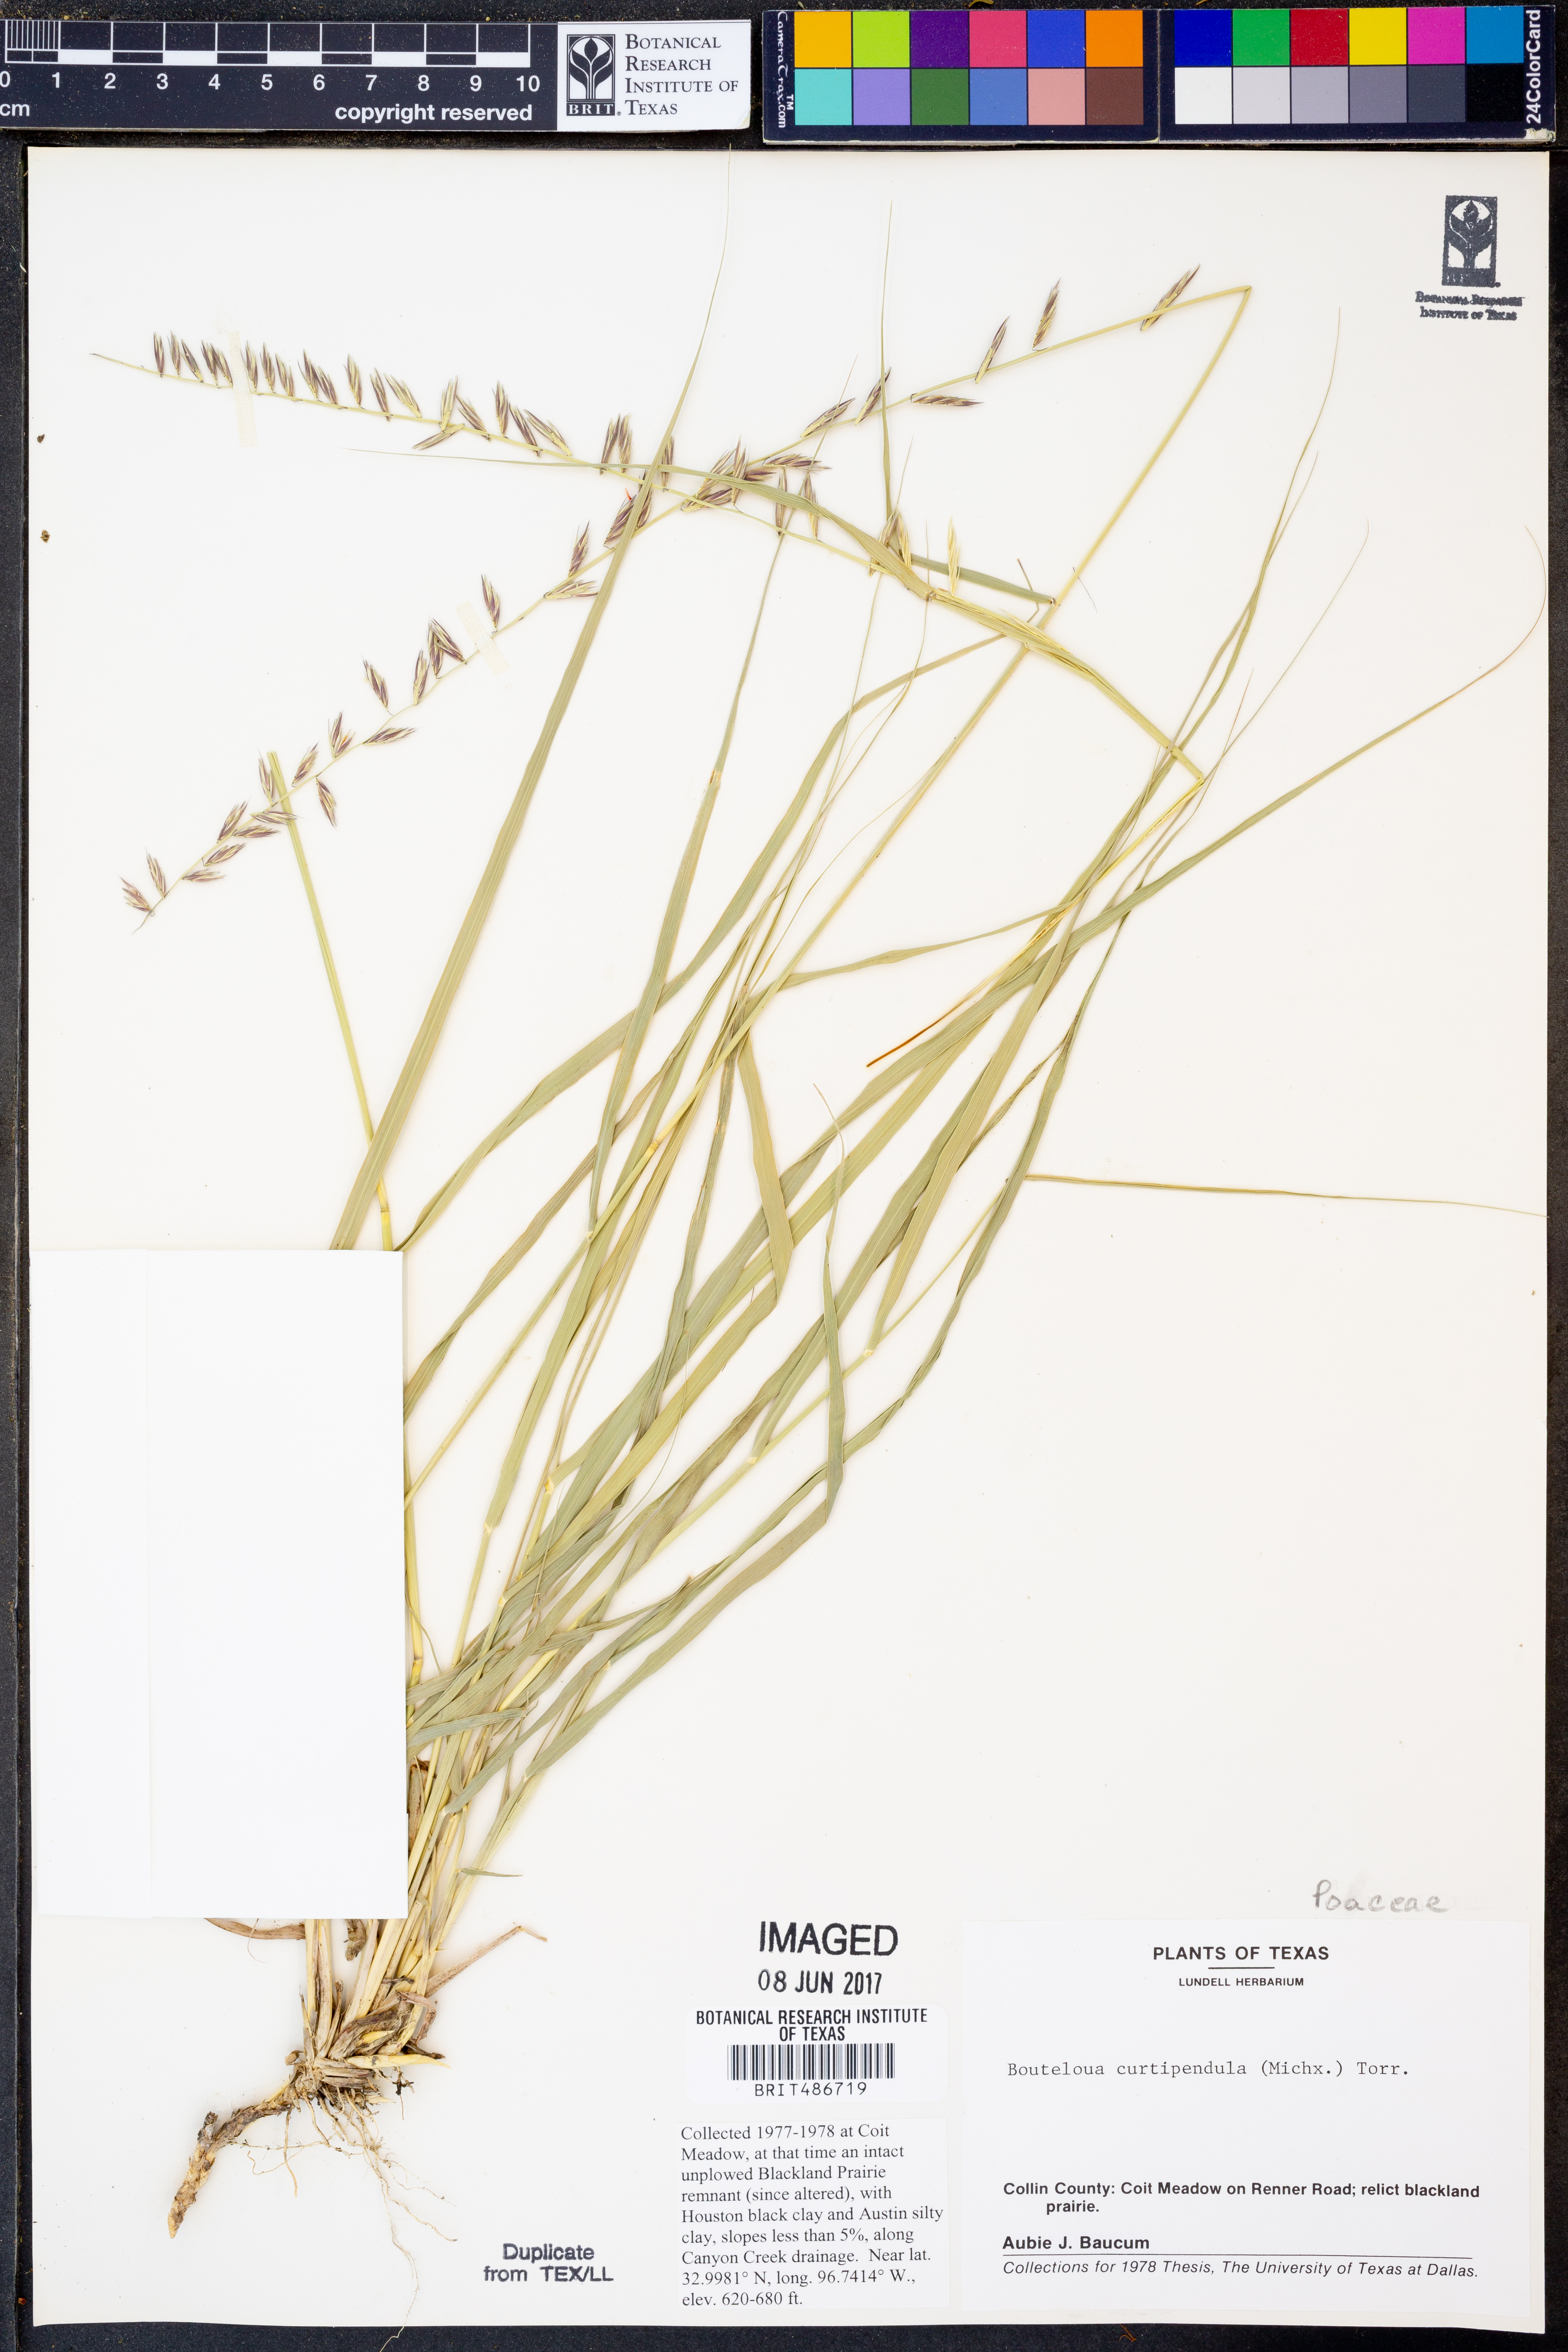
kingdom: Plantae
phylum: Tracheophyta
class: Liliopsida
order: Poales
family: Poaceae
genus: Bouteloua
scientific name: Bouteloua curtipendula
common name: Side-oats grama
